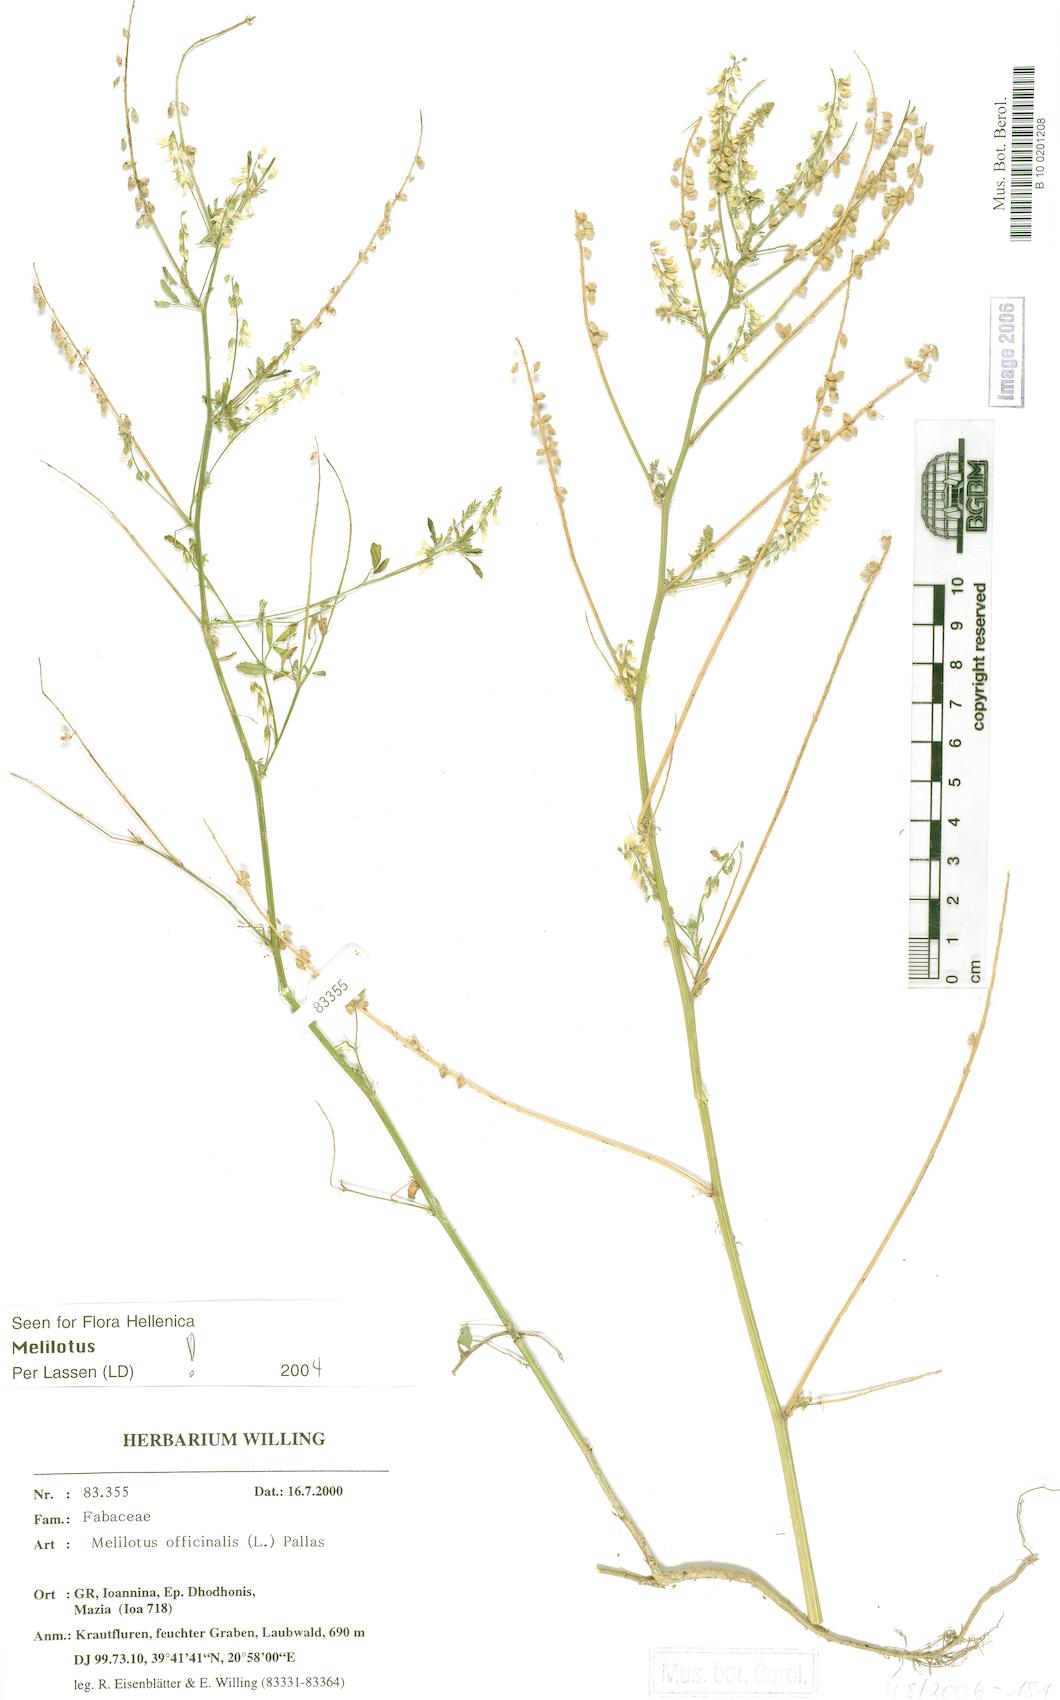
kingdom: Plantae
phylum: Tracheophyta
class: Magnoliopsida
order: Fabales
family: Fabaceae
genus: Melilotus
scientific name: Melilotus officinalis
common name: Sweetclover
